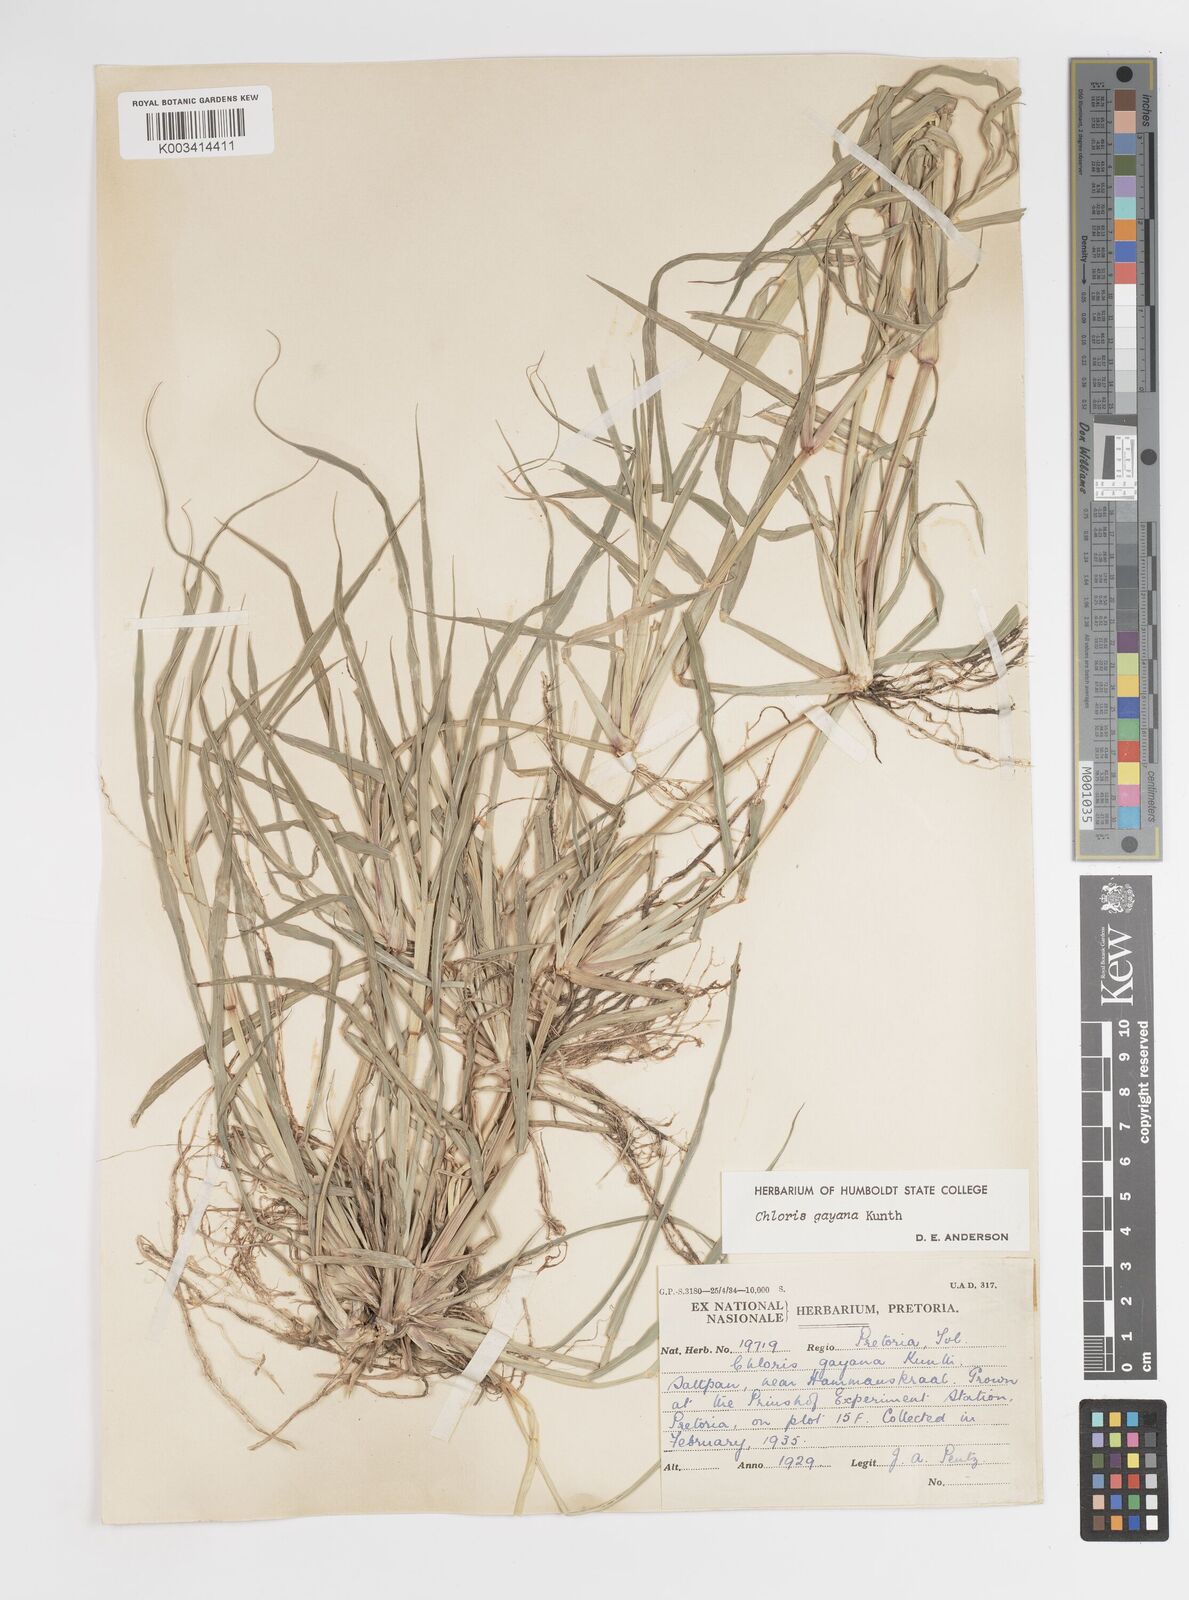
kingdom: Plantae
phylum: Tracheophyta
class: Liliopsida
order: Poales
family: Poaceae
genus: Chloris
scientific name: Chloris gayana
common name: Rhodes grass
